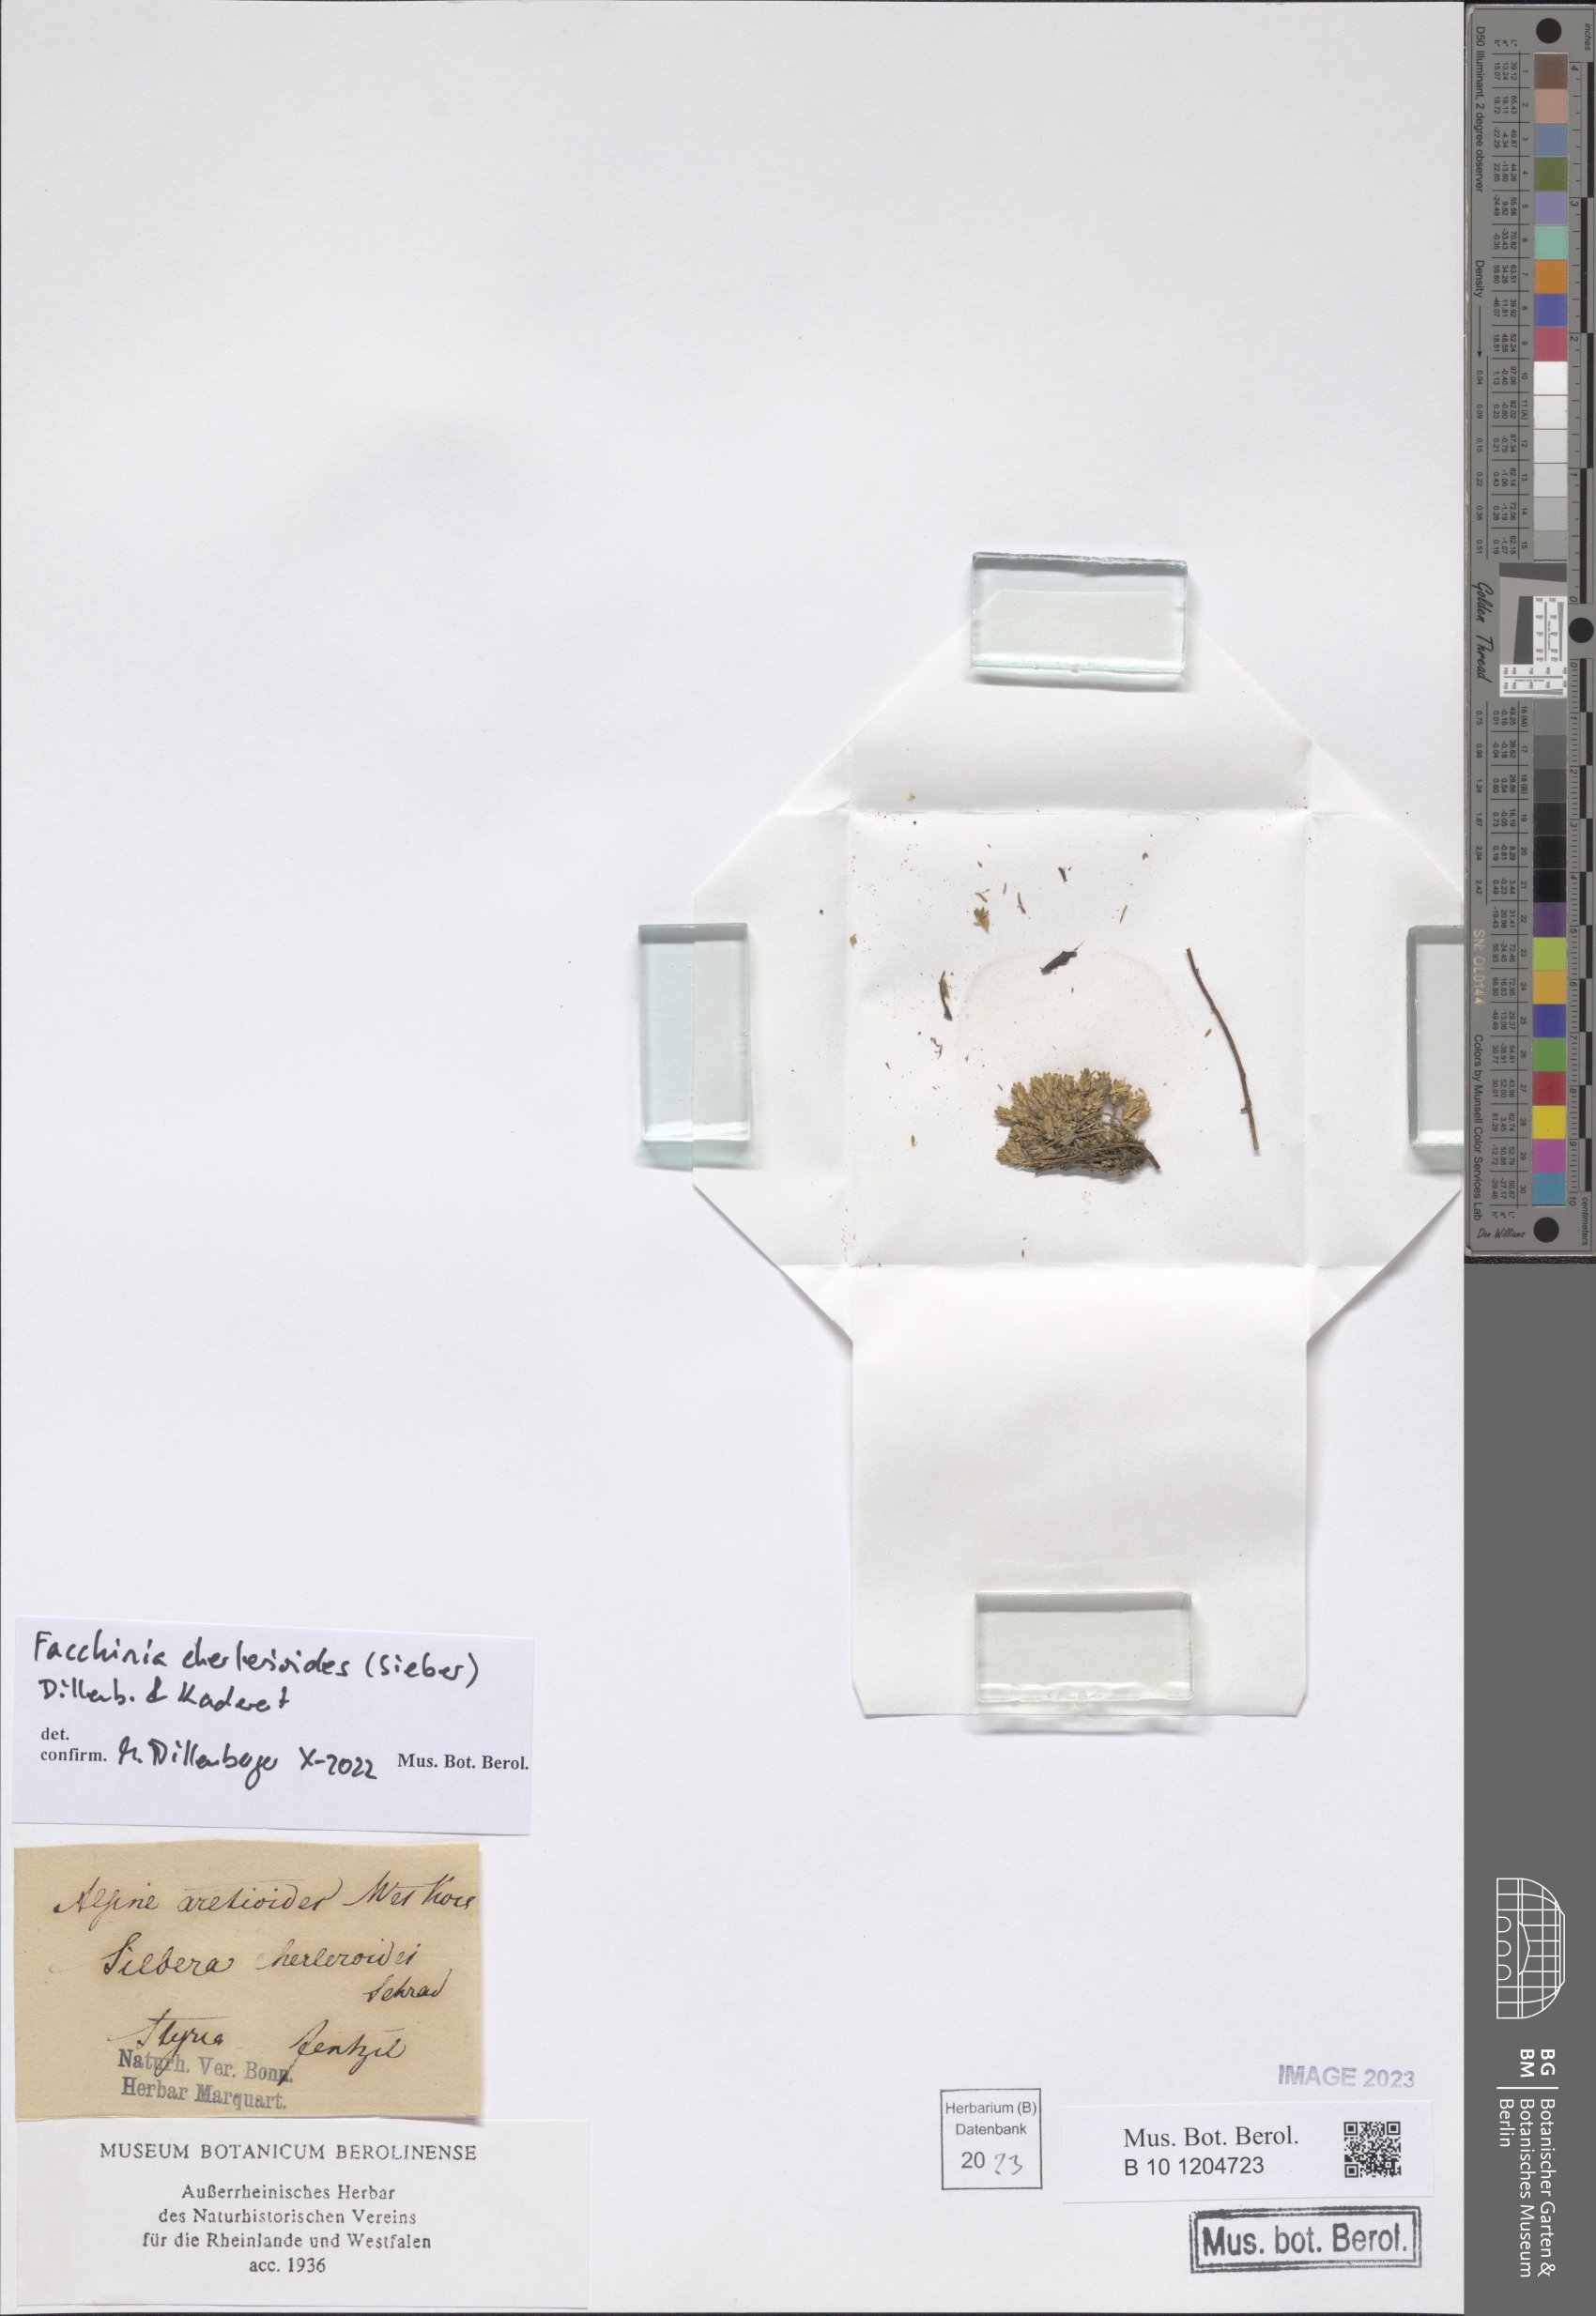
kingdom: Plantae
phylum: Tracheophyta
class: Magnoliopsida
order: Caryophyllales
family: Caryophyllaceae
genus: Facchinia
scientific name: Facchinia cherlerioides
